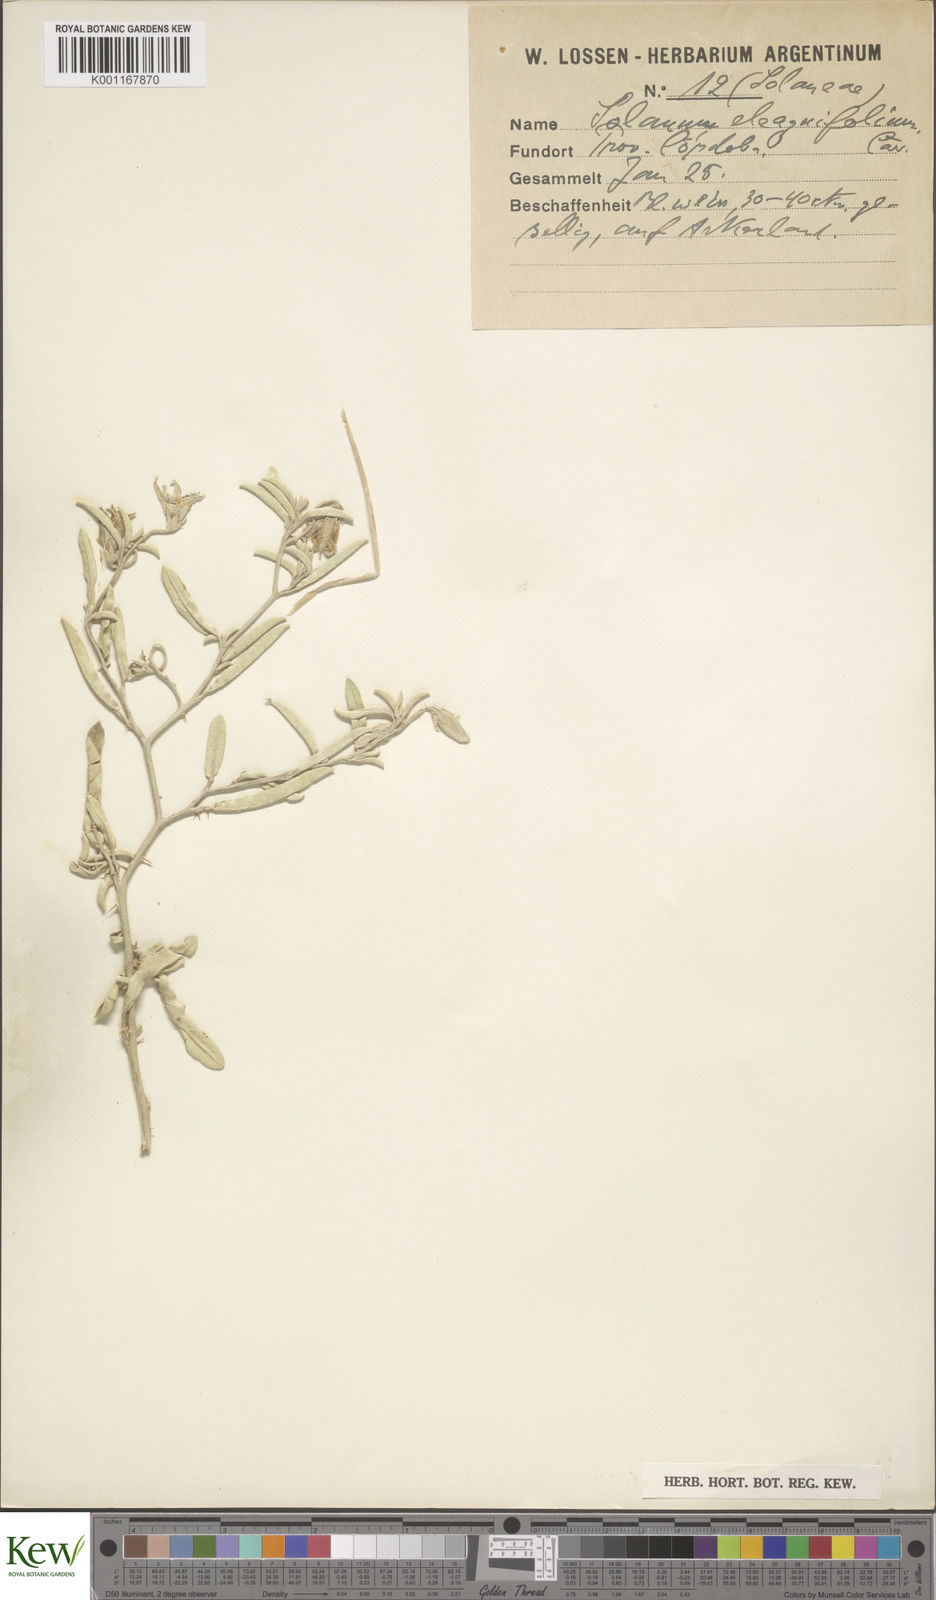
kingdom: Plantae
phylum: Tracheophyta
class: Magnoliopsida
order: Solanales
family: Solanaceae
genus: Solanum
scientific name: Solanum elaeagnifolium
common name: Silverleaf nightshade
